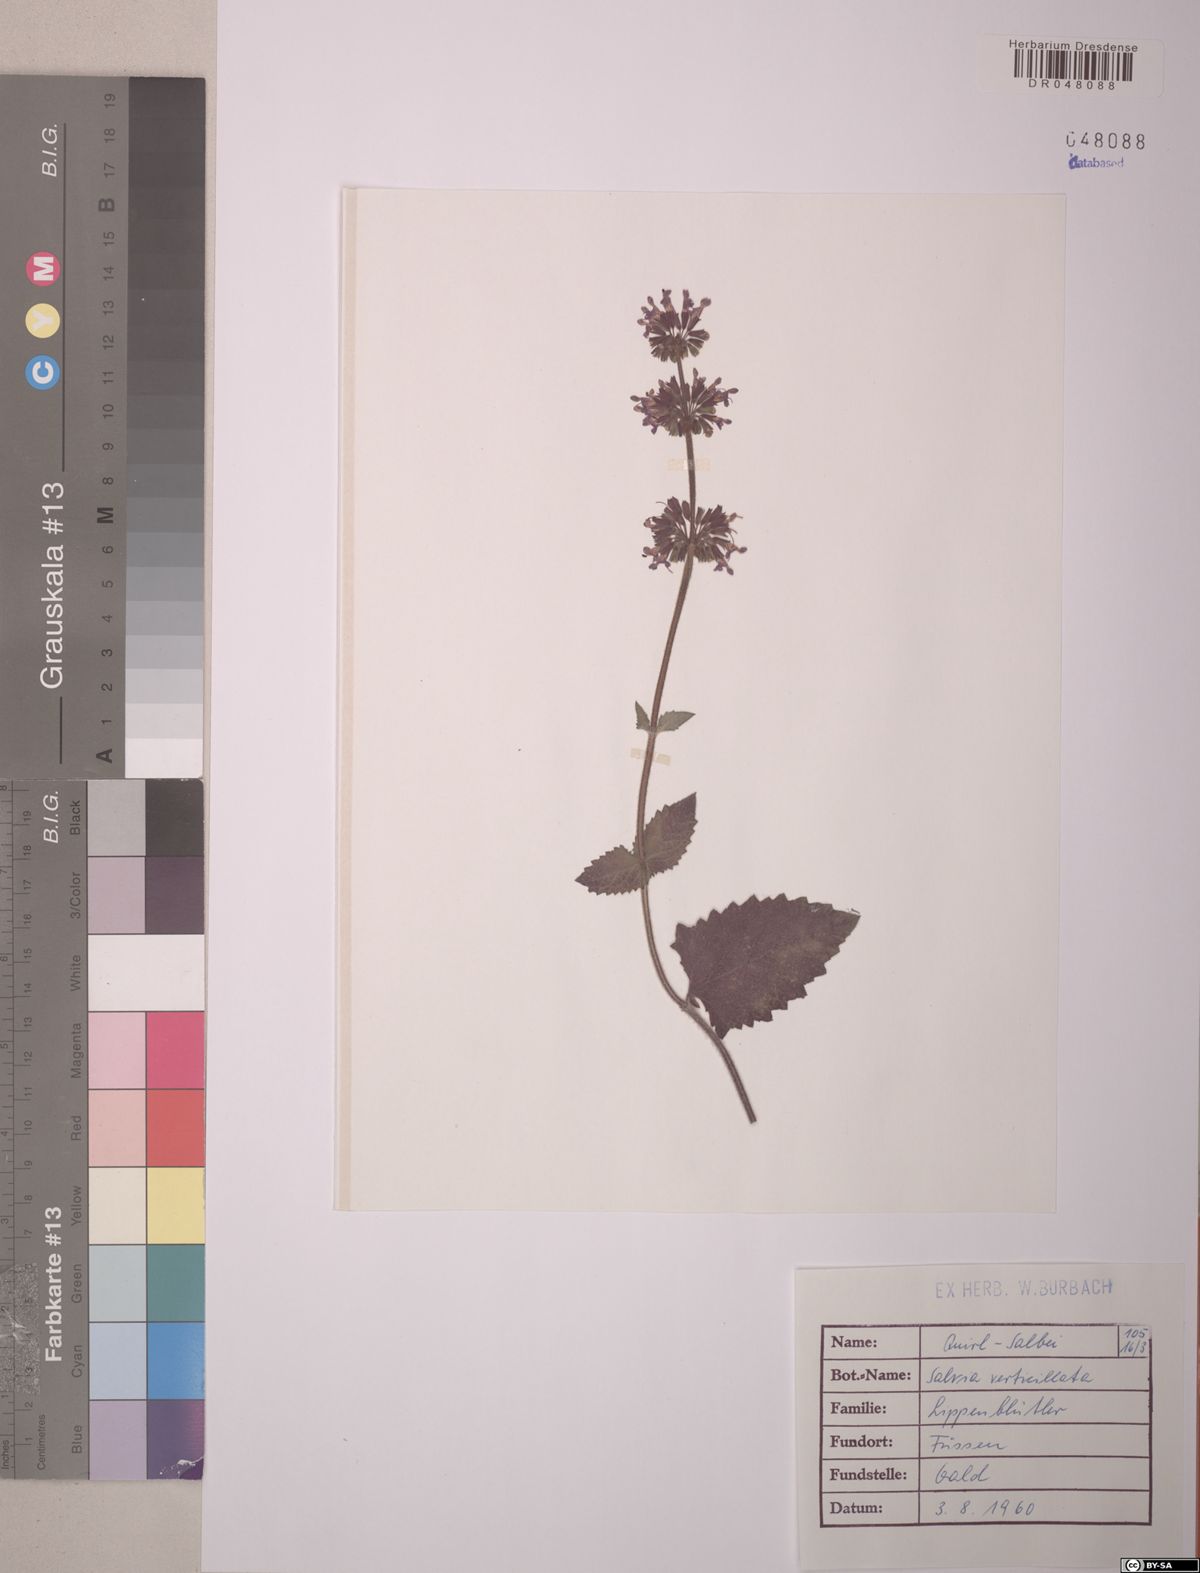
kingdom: Plantae
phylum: Tracheophyta
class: Magnoliopsida
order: Lamiales
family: Lamiaceae
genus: Salvia
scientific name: Salvia verticillata
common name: Whorled clary
